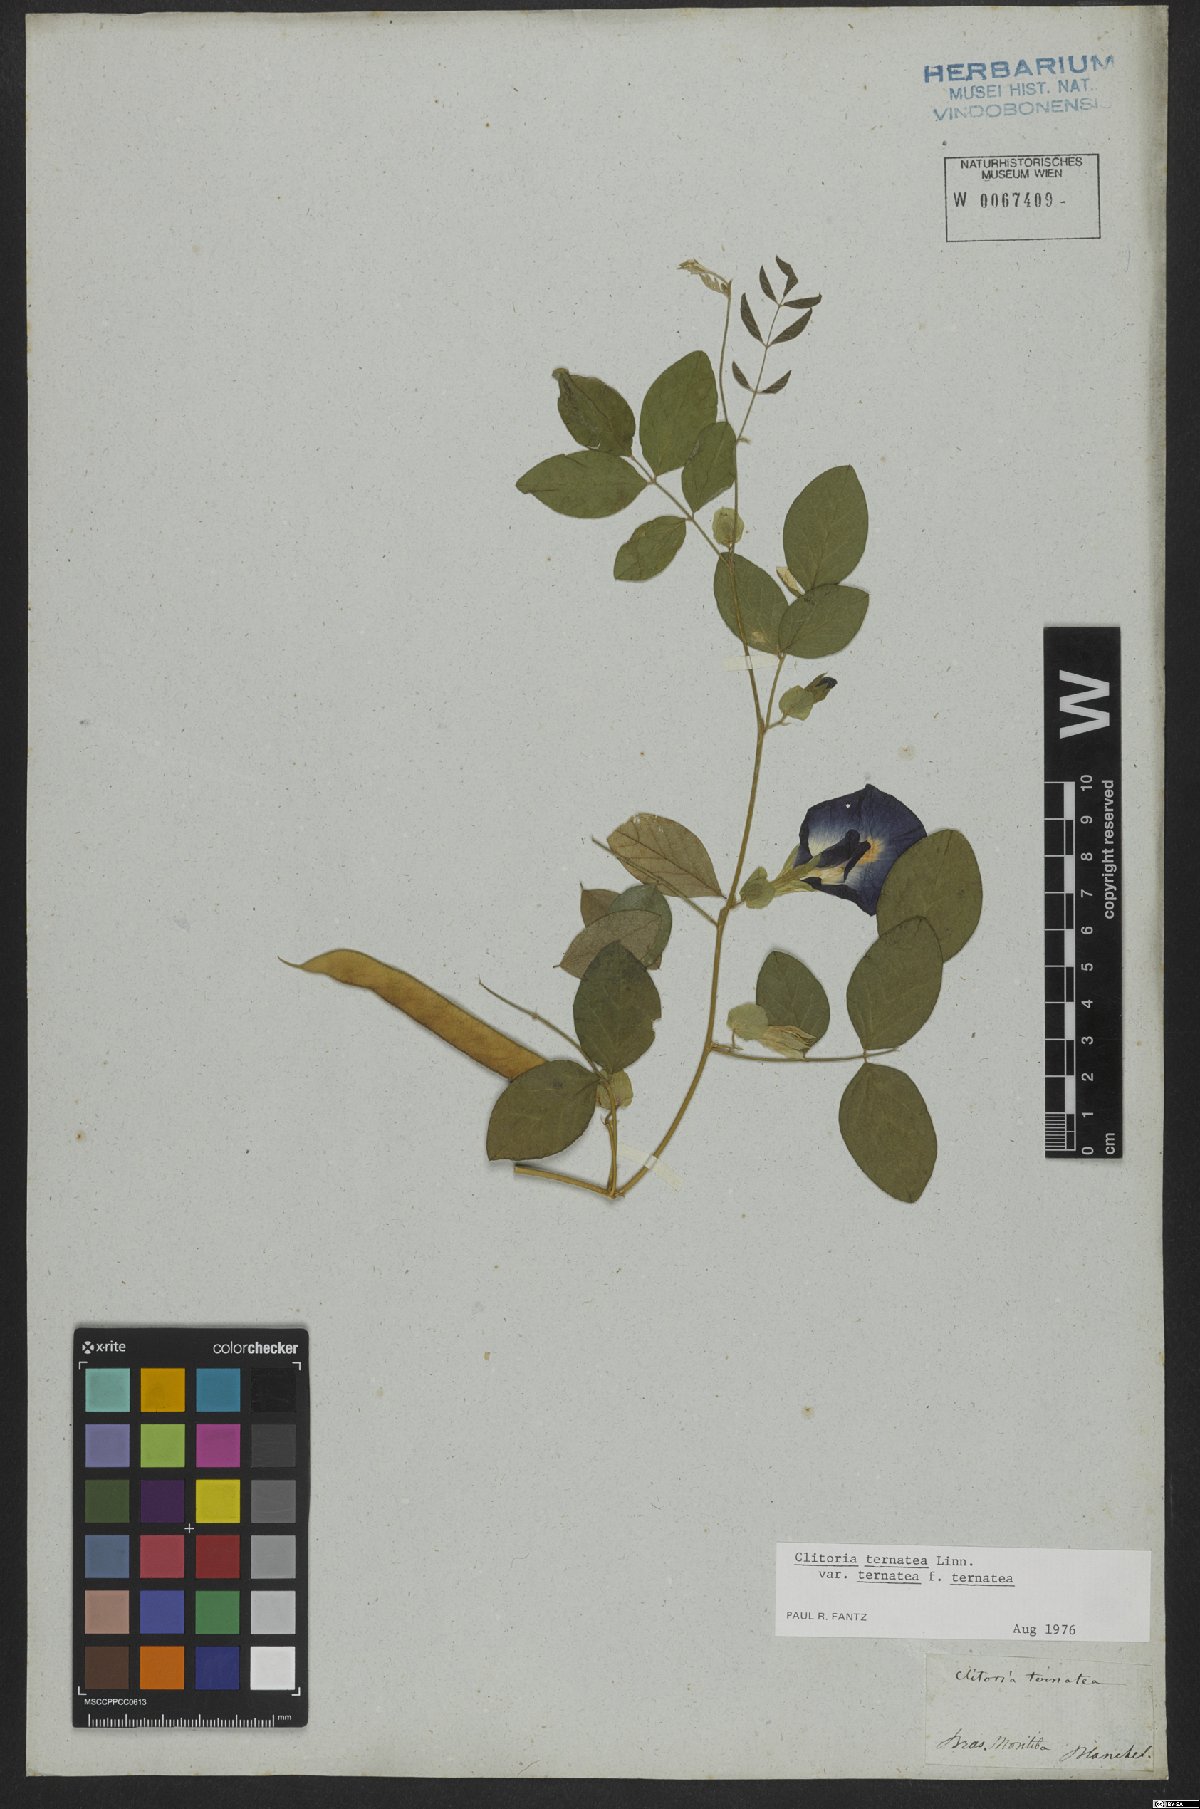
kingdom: Plantae
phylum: Tracheophyta
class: Magnoliopsida
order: Fabales
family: Fabaceae
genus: Clitoria
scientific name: Clitoria ternatea
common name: Asian pigeonwings
